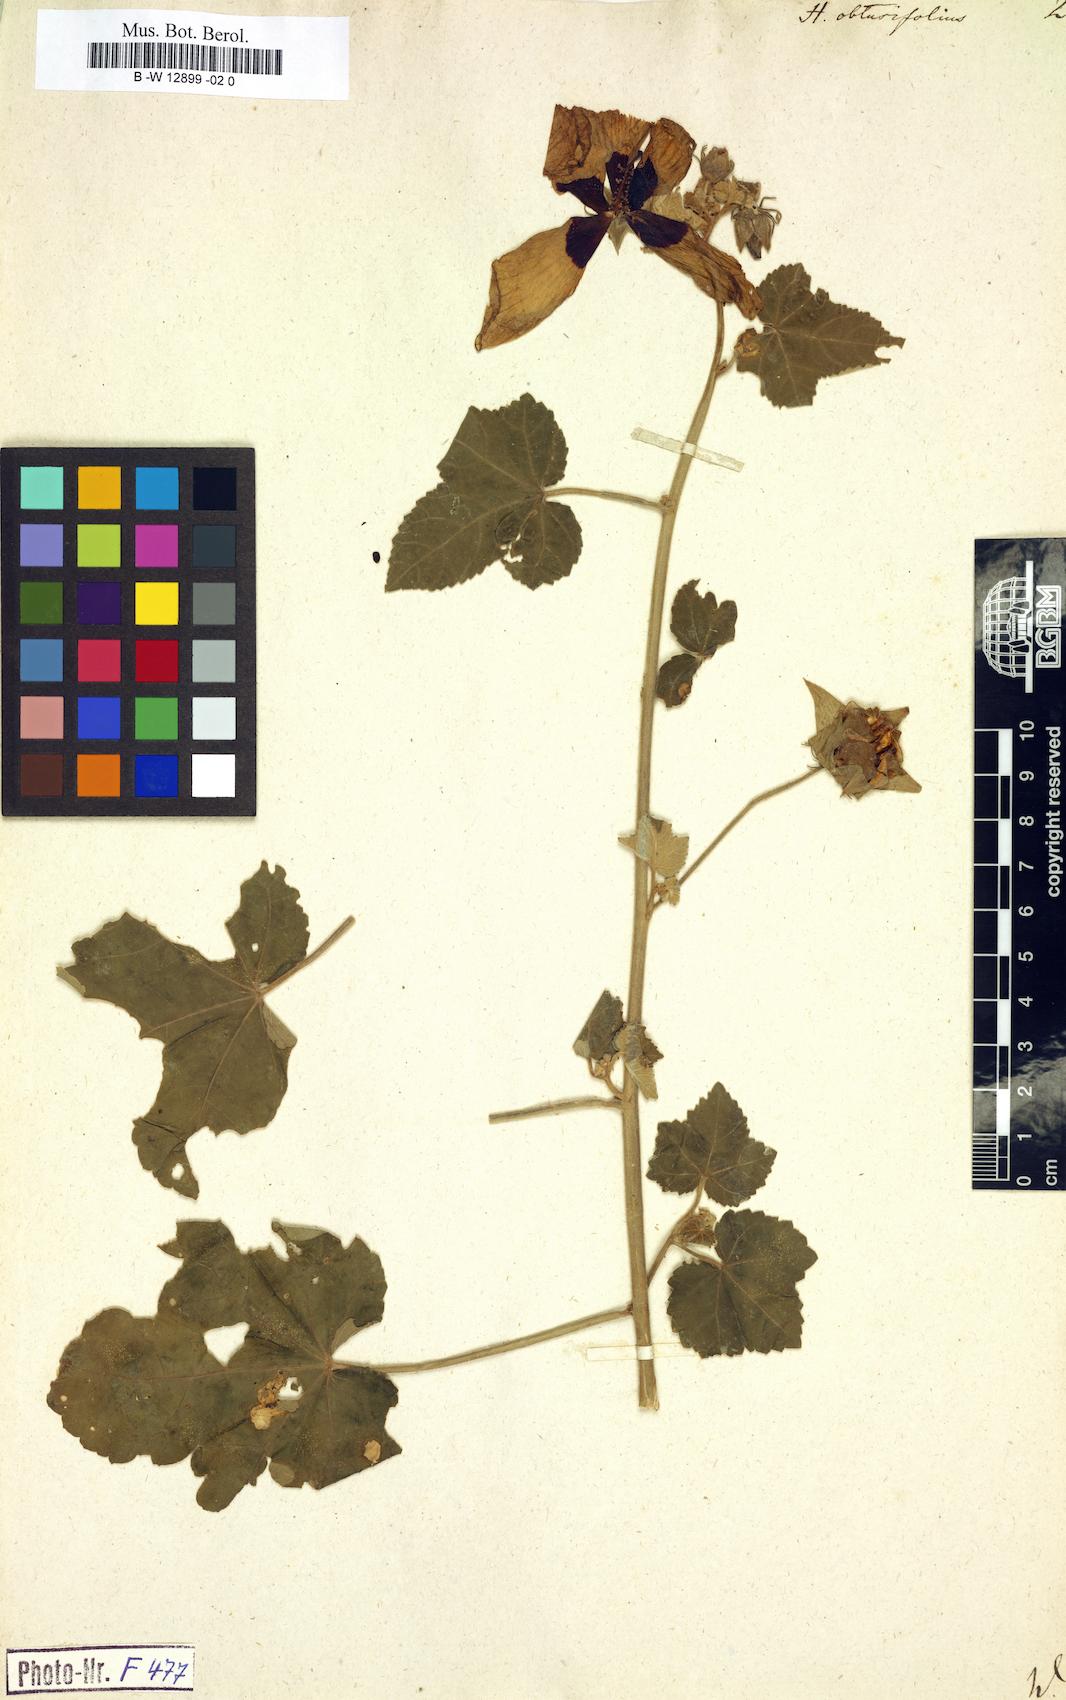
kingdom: Plantae
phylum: Tracheophyta
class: Magnoliopsida
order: Malvales
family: Malvaceae
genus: Hibiscus
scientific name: Hibiscus vitifolius
